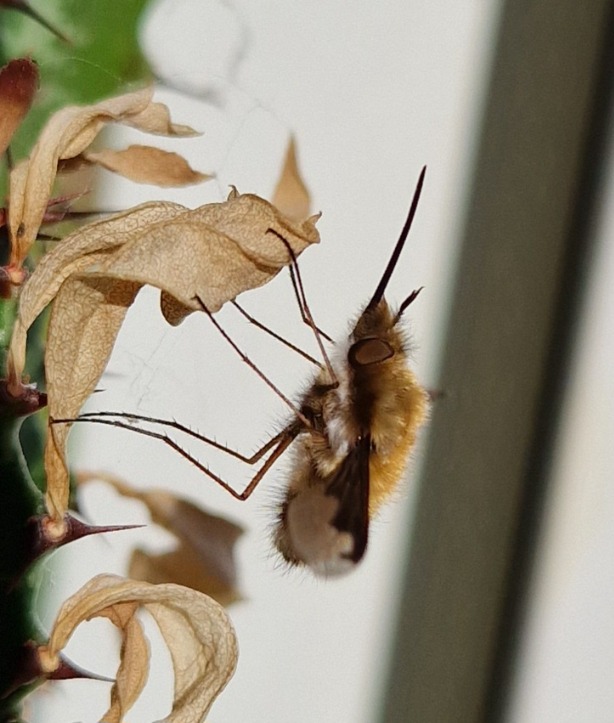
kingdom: Animalia
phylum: Arthropoda
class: Insecta
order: Diptera
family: Bombyliidae
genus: Bombylius
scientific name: Bombylius major
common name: Stor humleflue
